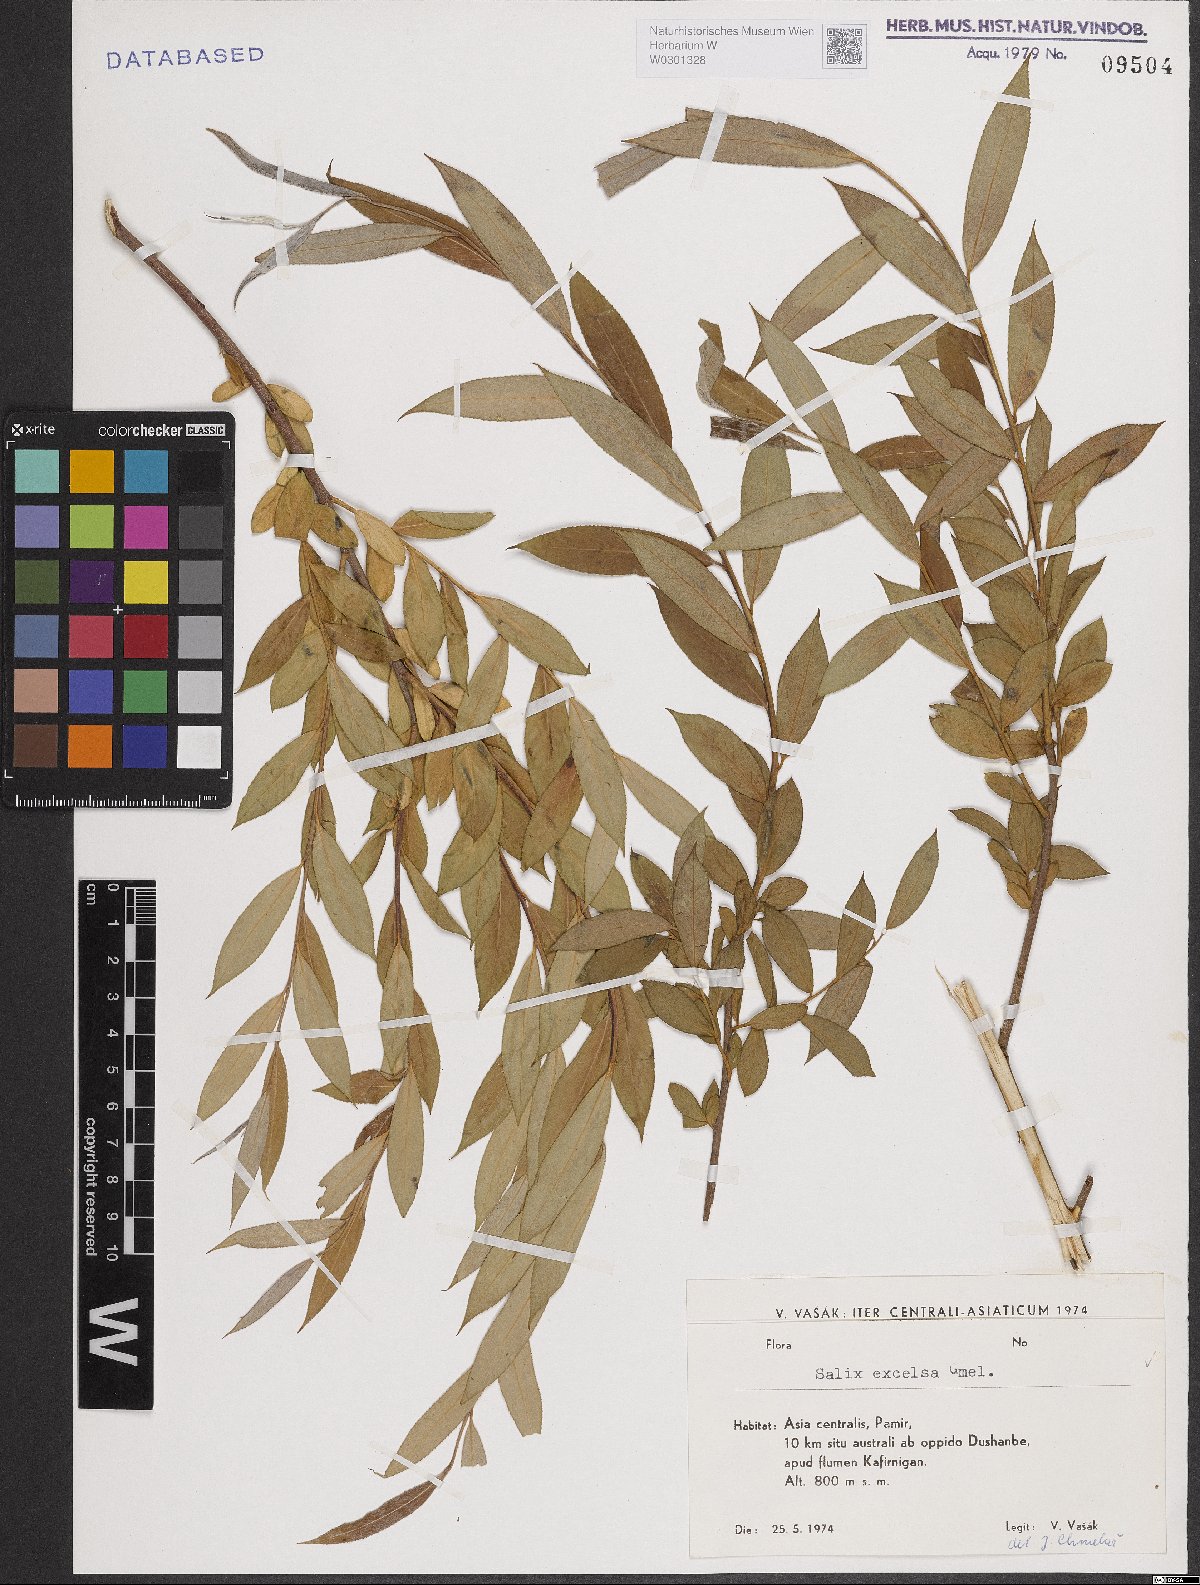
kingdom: Plantae
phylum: Tracheophyta
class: Magnoliopsida
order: Malpighiales
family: Salicaceae
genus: Salix
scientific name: Salix excelsa
